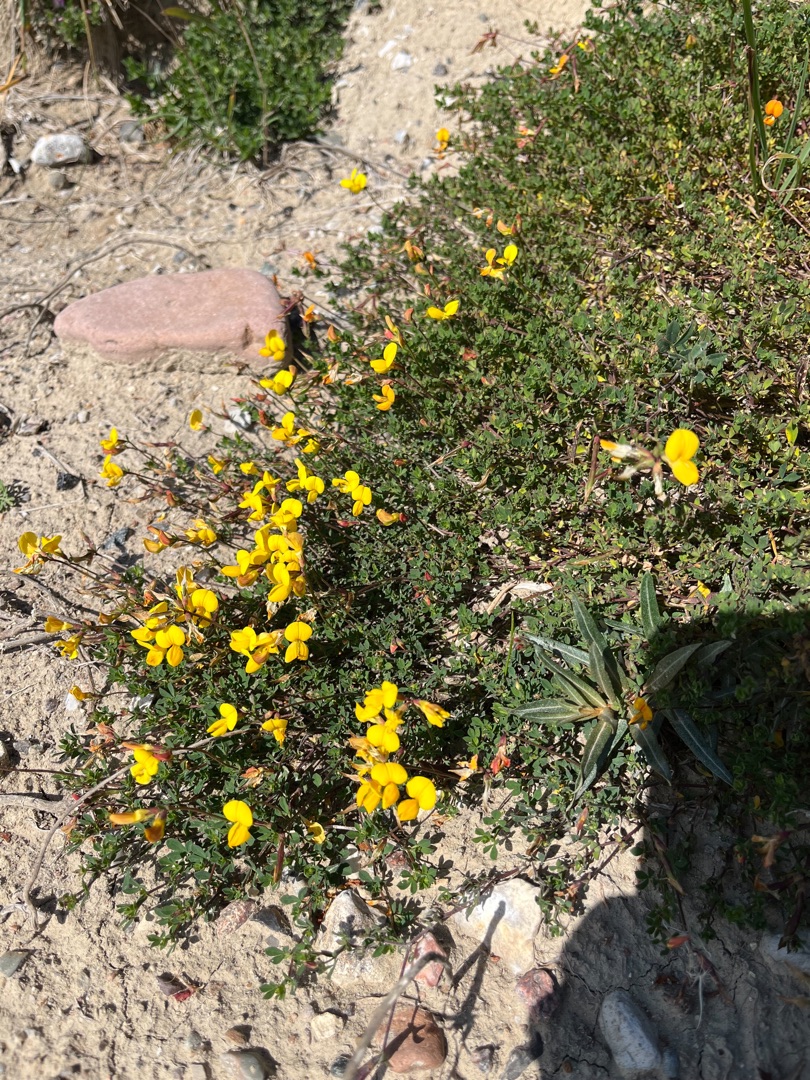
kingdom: Plantae
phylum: Tracheophyta
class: Magnoliopsida
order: Fabales
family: Fabaceae
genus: Lotus
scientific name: Lotus corniculatus
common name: Almindelig kællingetand
